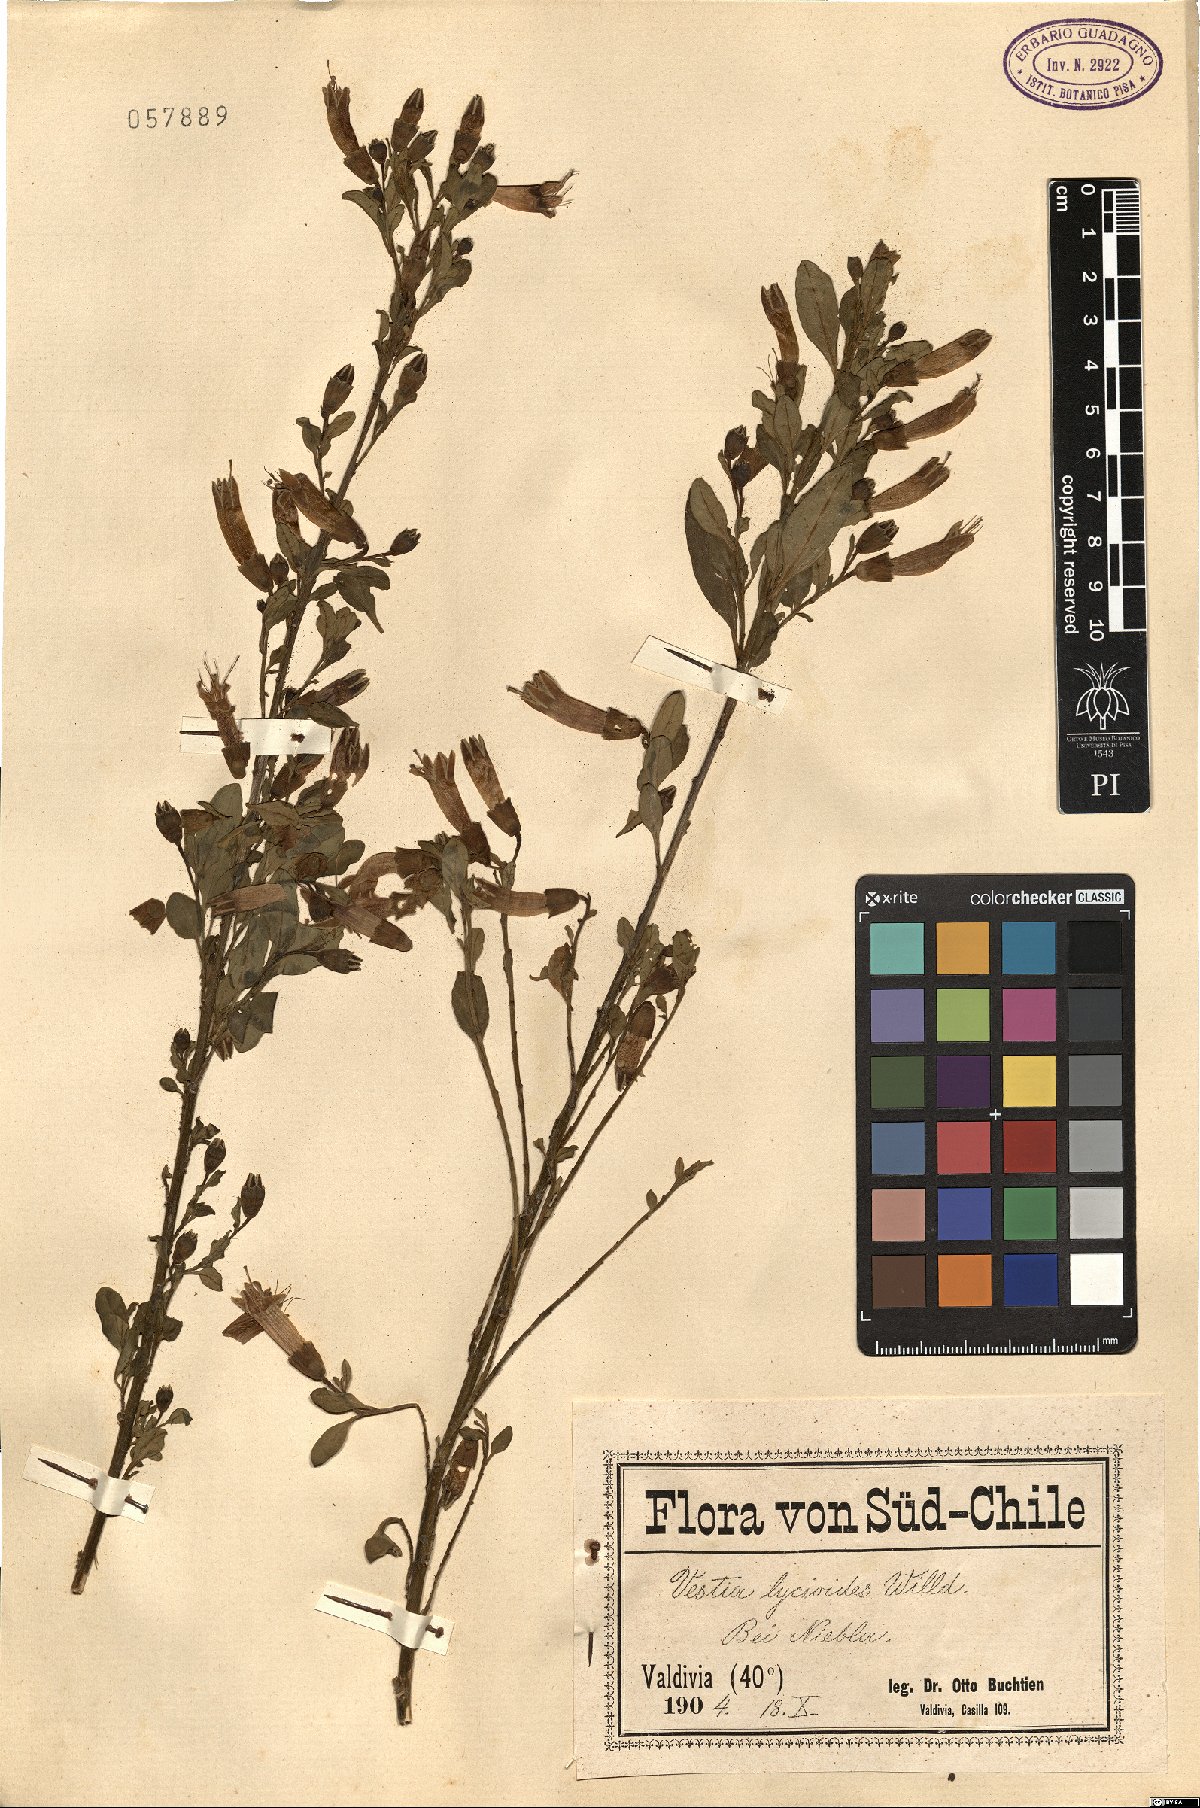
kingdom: Plantae
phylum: Tracheophyta
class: Magnoliopsida
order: Solanales
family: Solanaceae
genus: Vestia
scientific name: Vestia foetida
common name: Huevil
